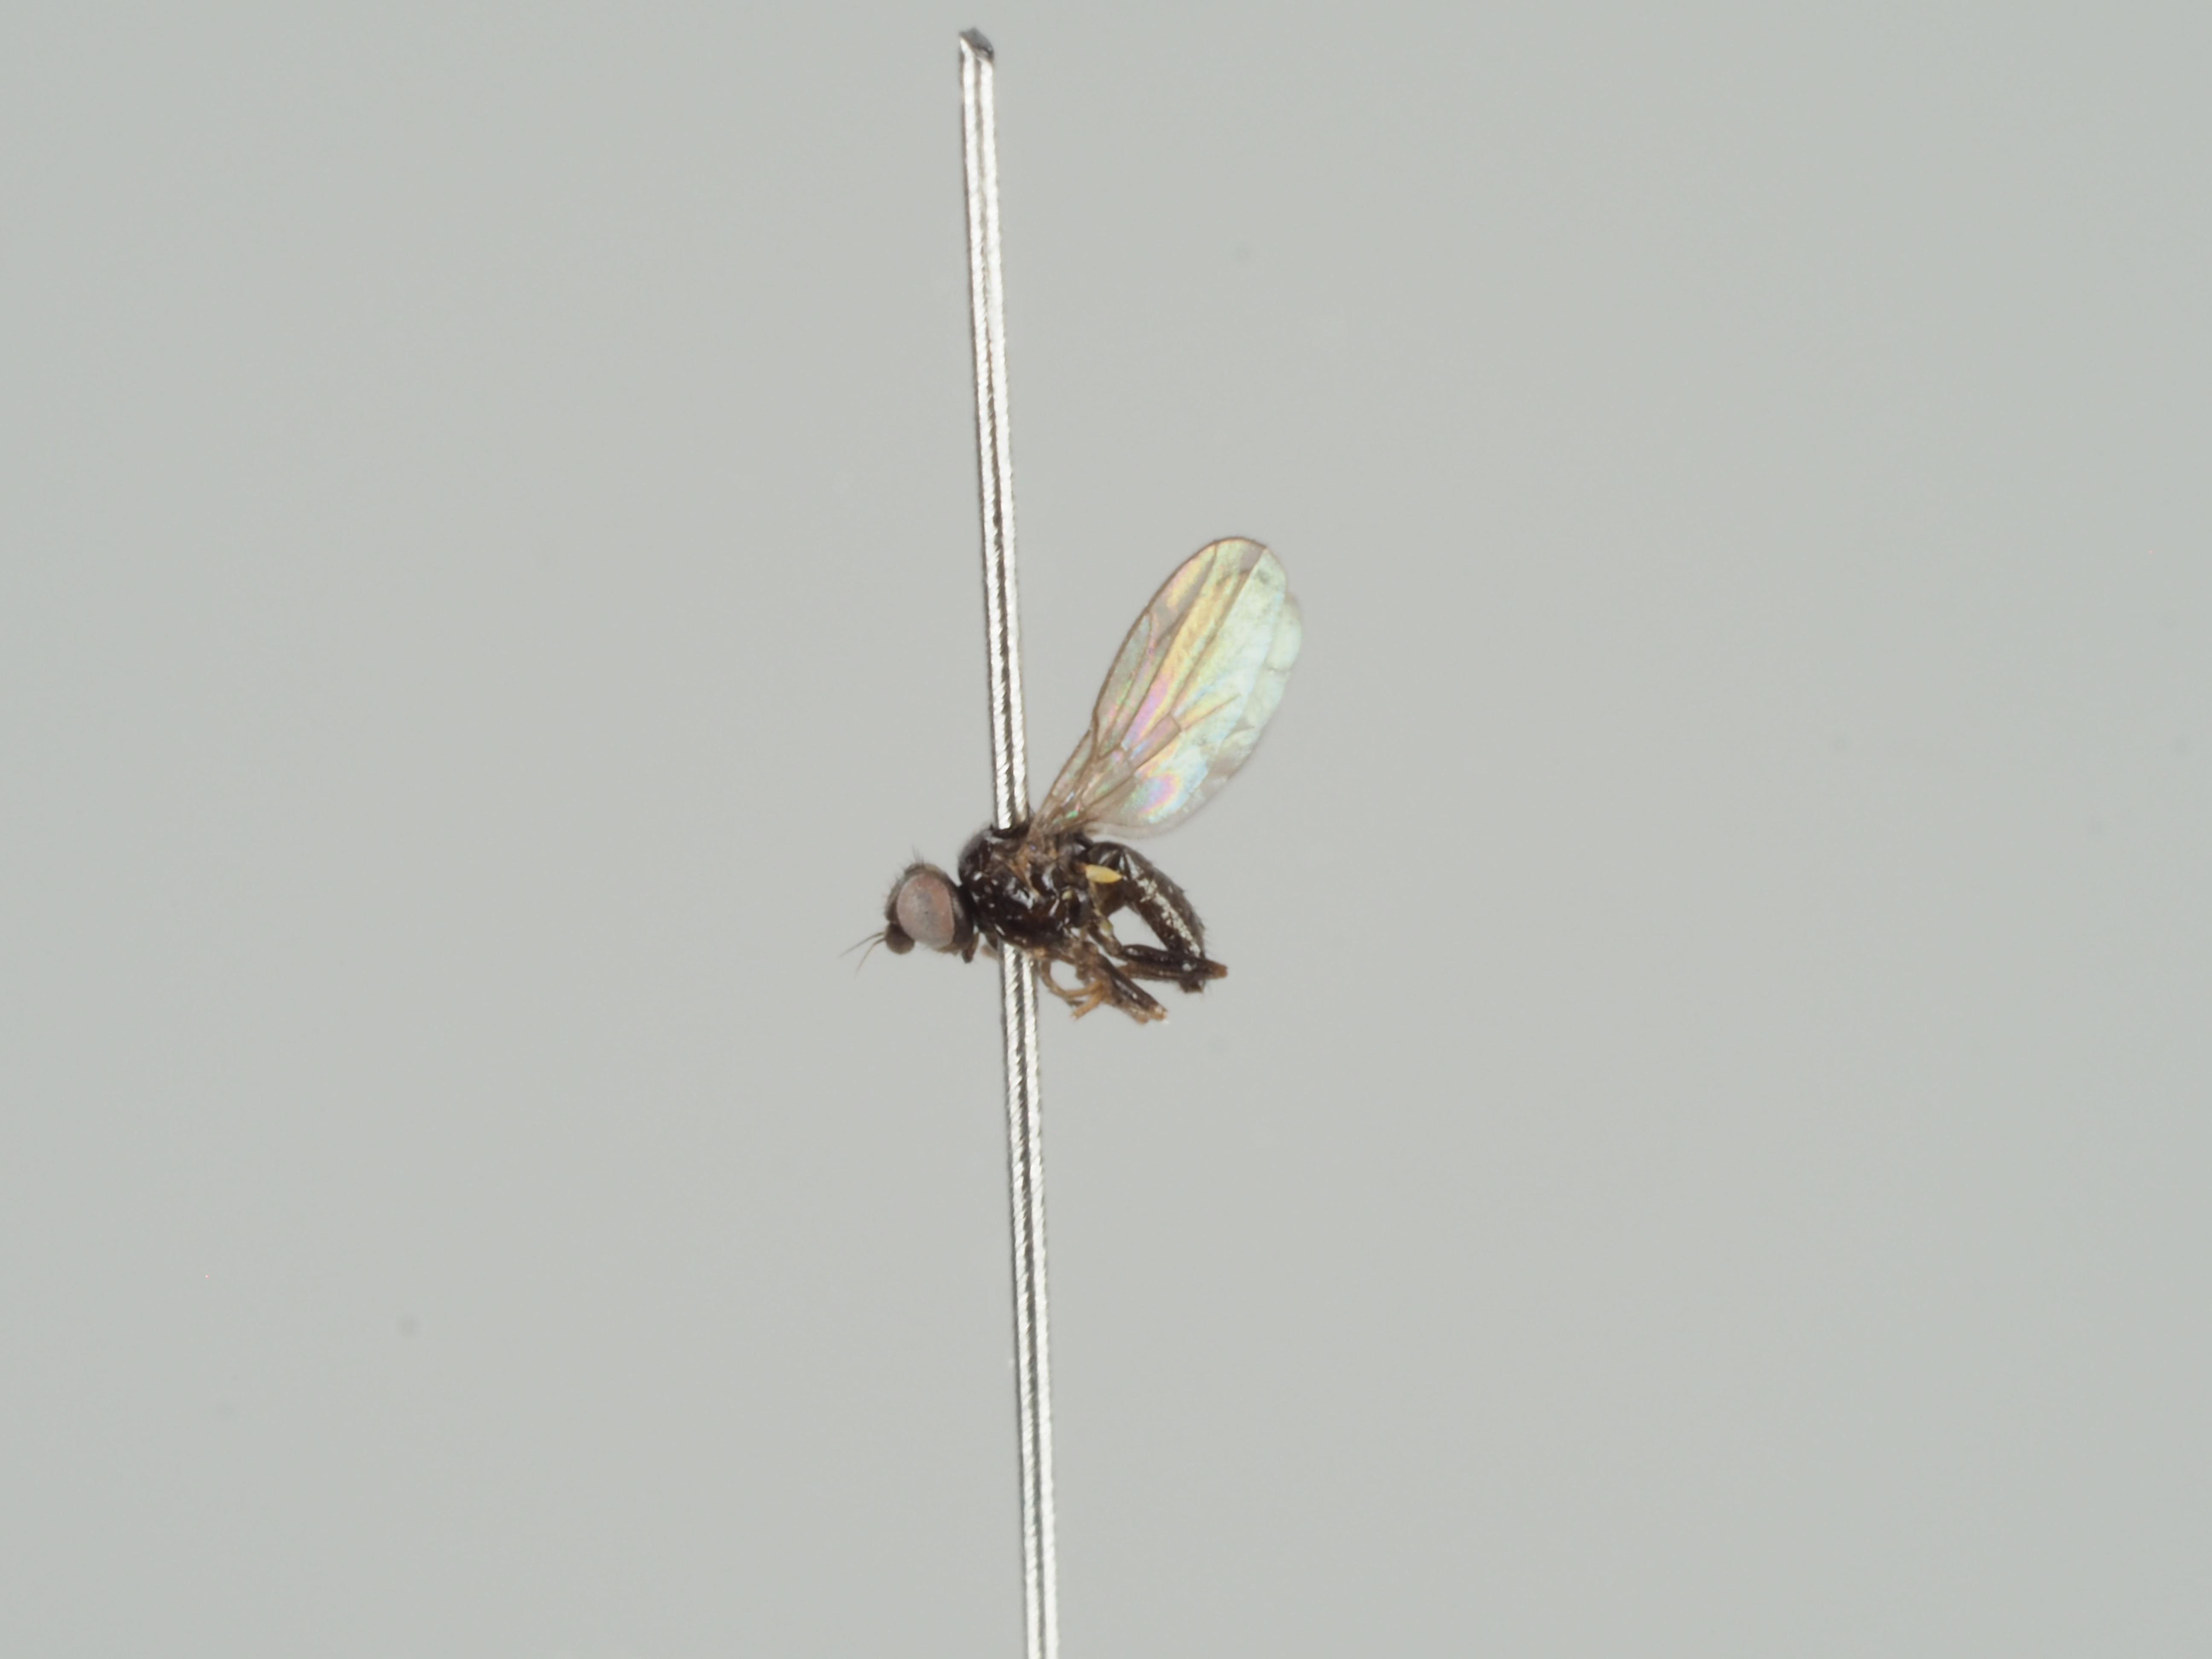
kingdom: Animalia
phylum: Arthropoda
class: Insecta
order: Diptera
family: Chloropidae
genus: Rhopalopterum
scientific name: Rhopalopterum atricilla
